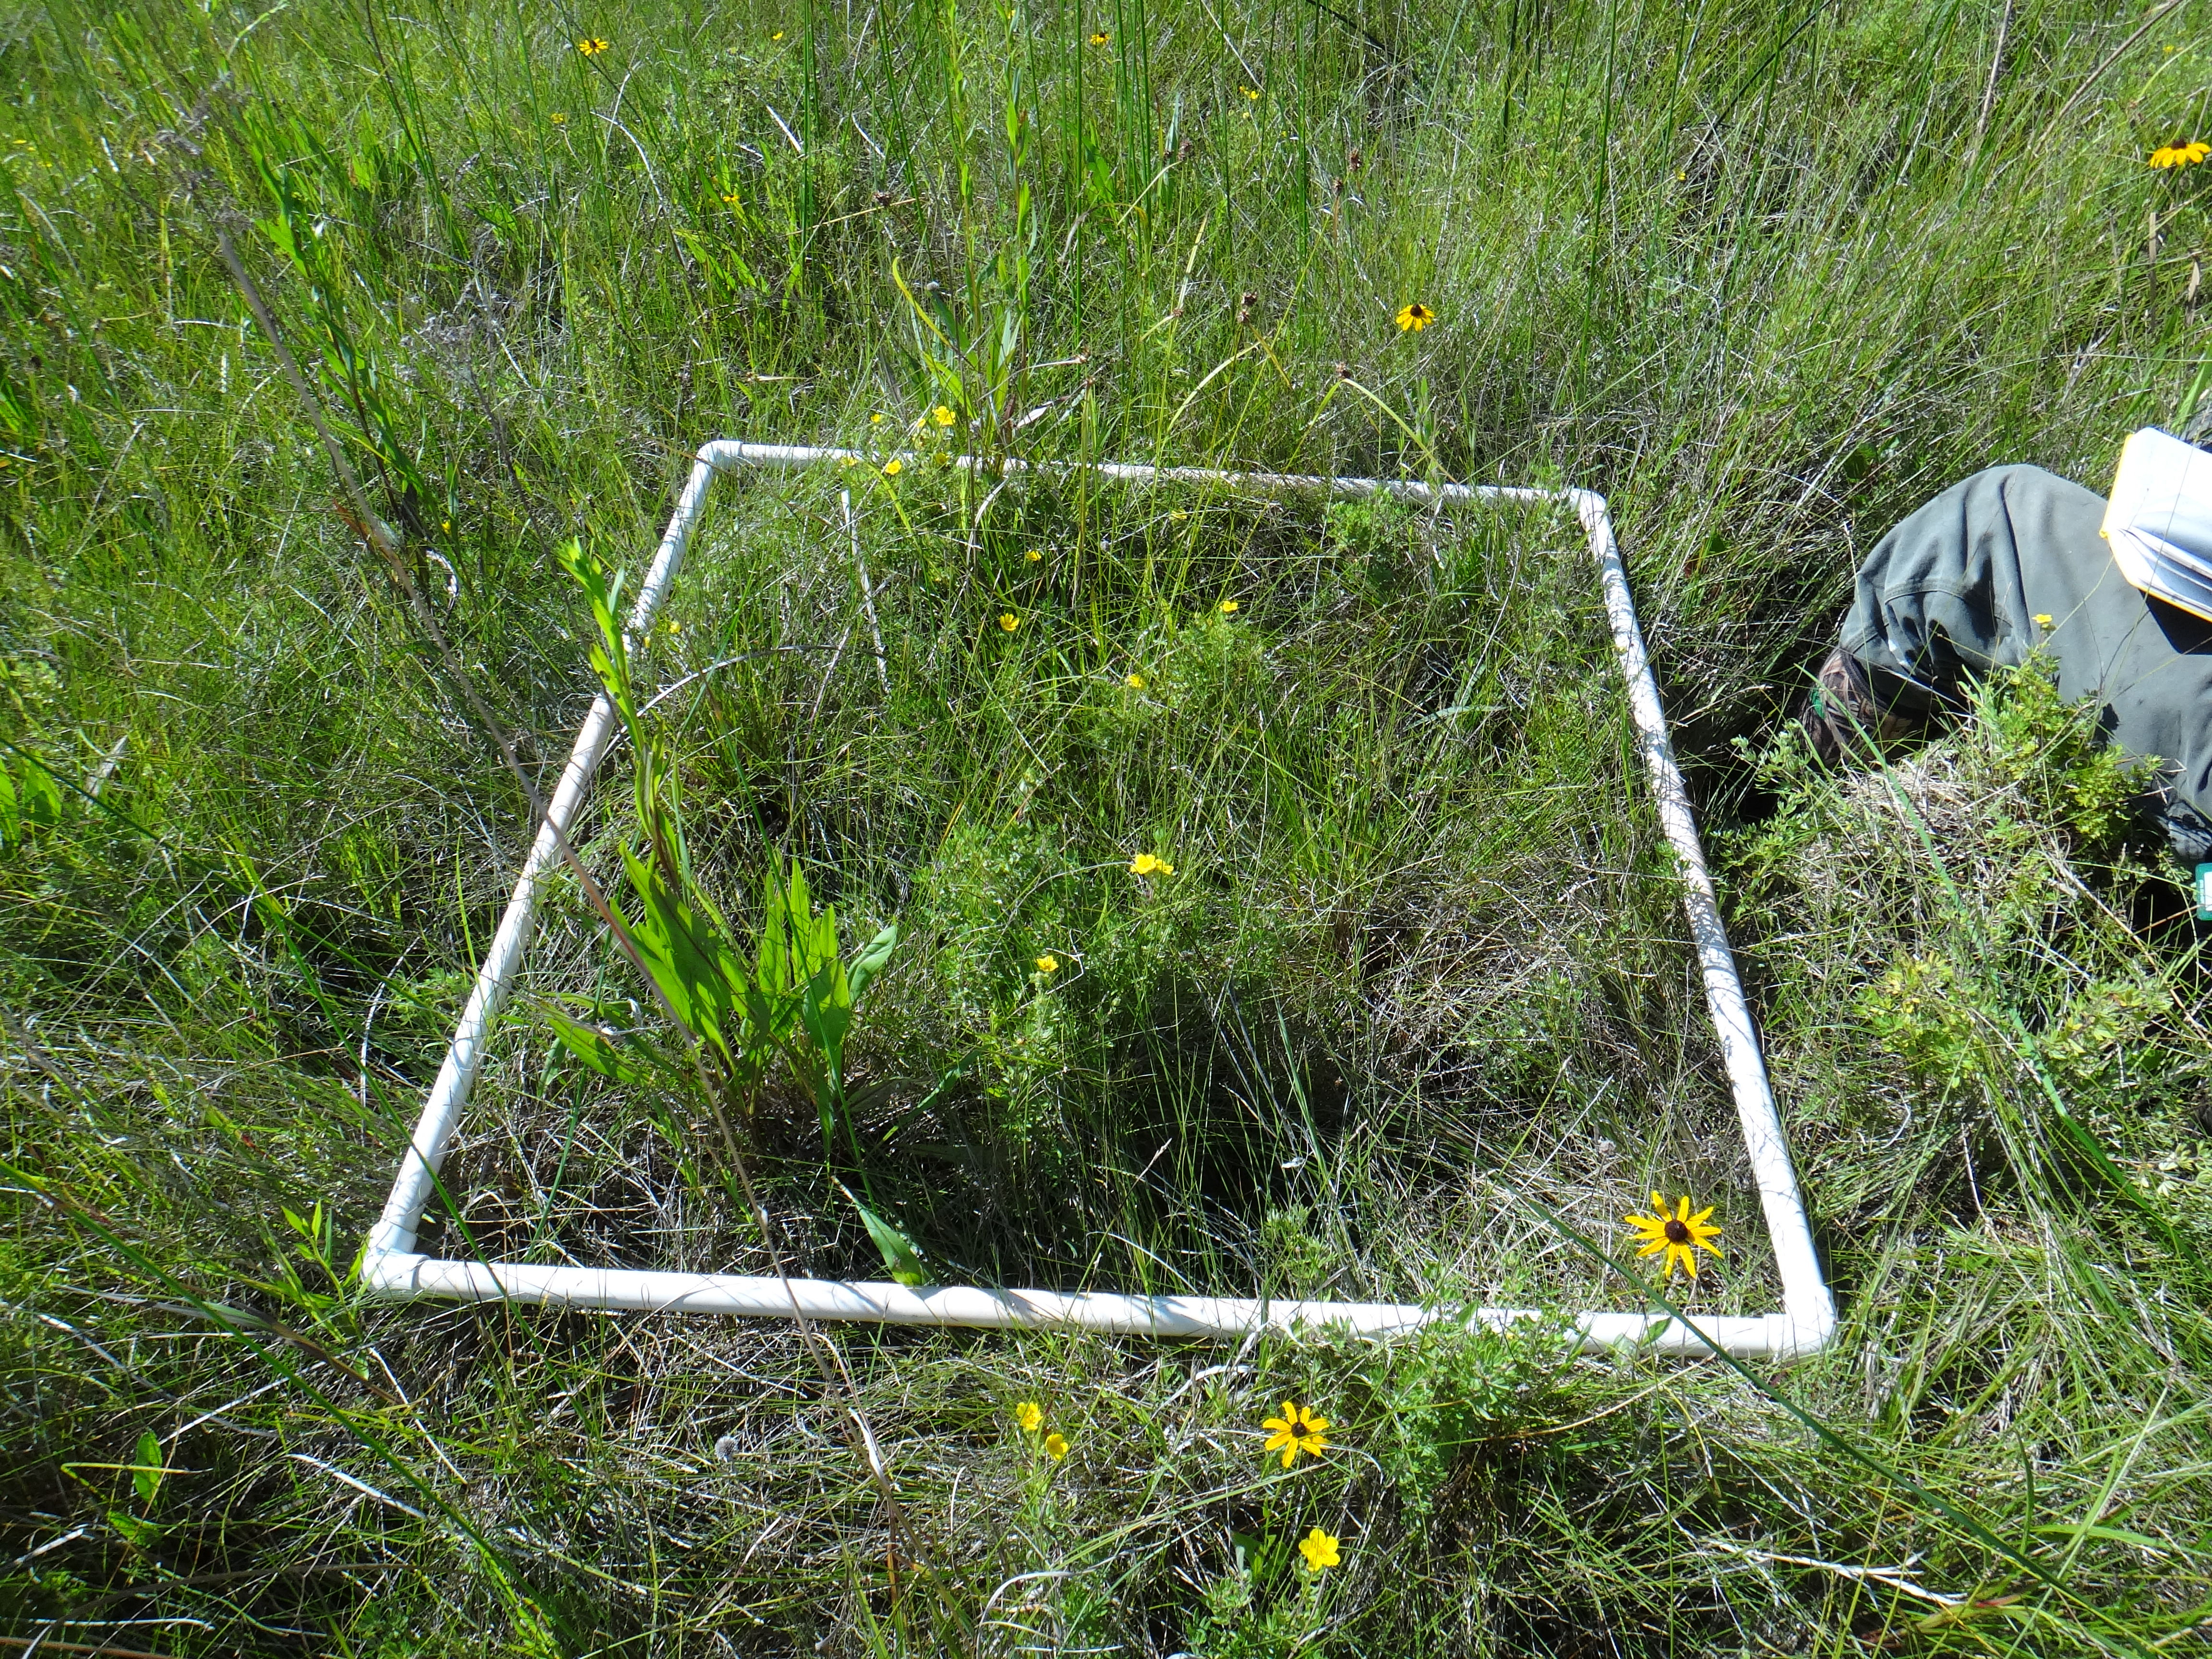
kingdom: Plantae
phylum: Tracheophyta
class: Liliopsida
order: Poales
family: Cyperaceae
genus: Schoenoplectus
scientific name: Schoenoplectus pungens
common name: Sharp club-rush
